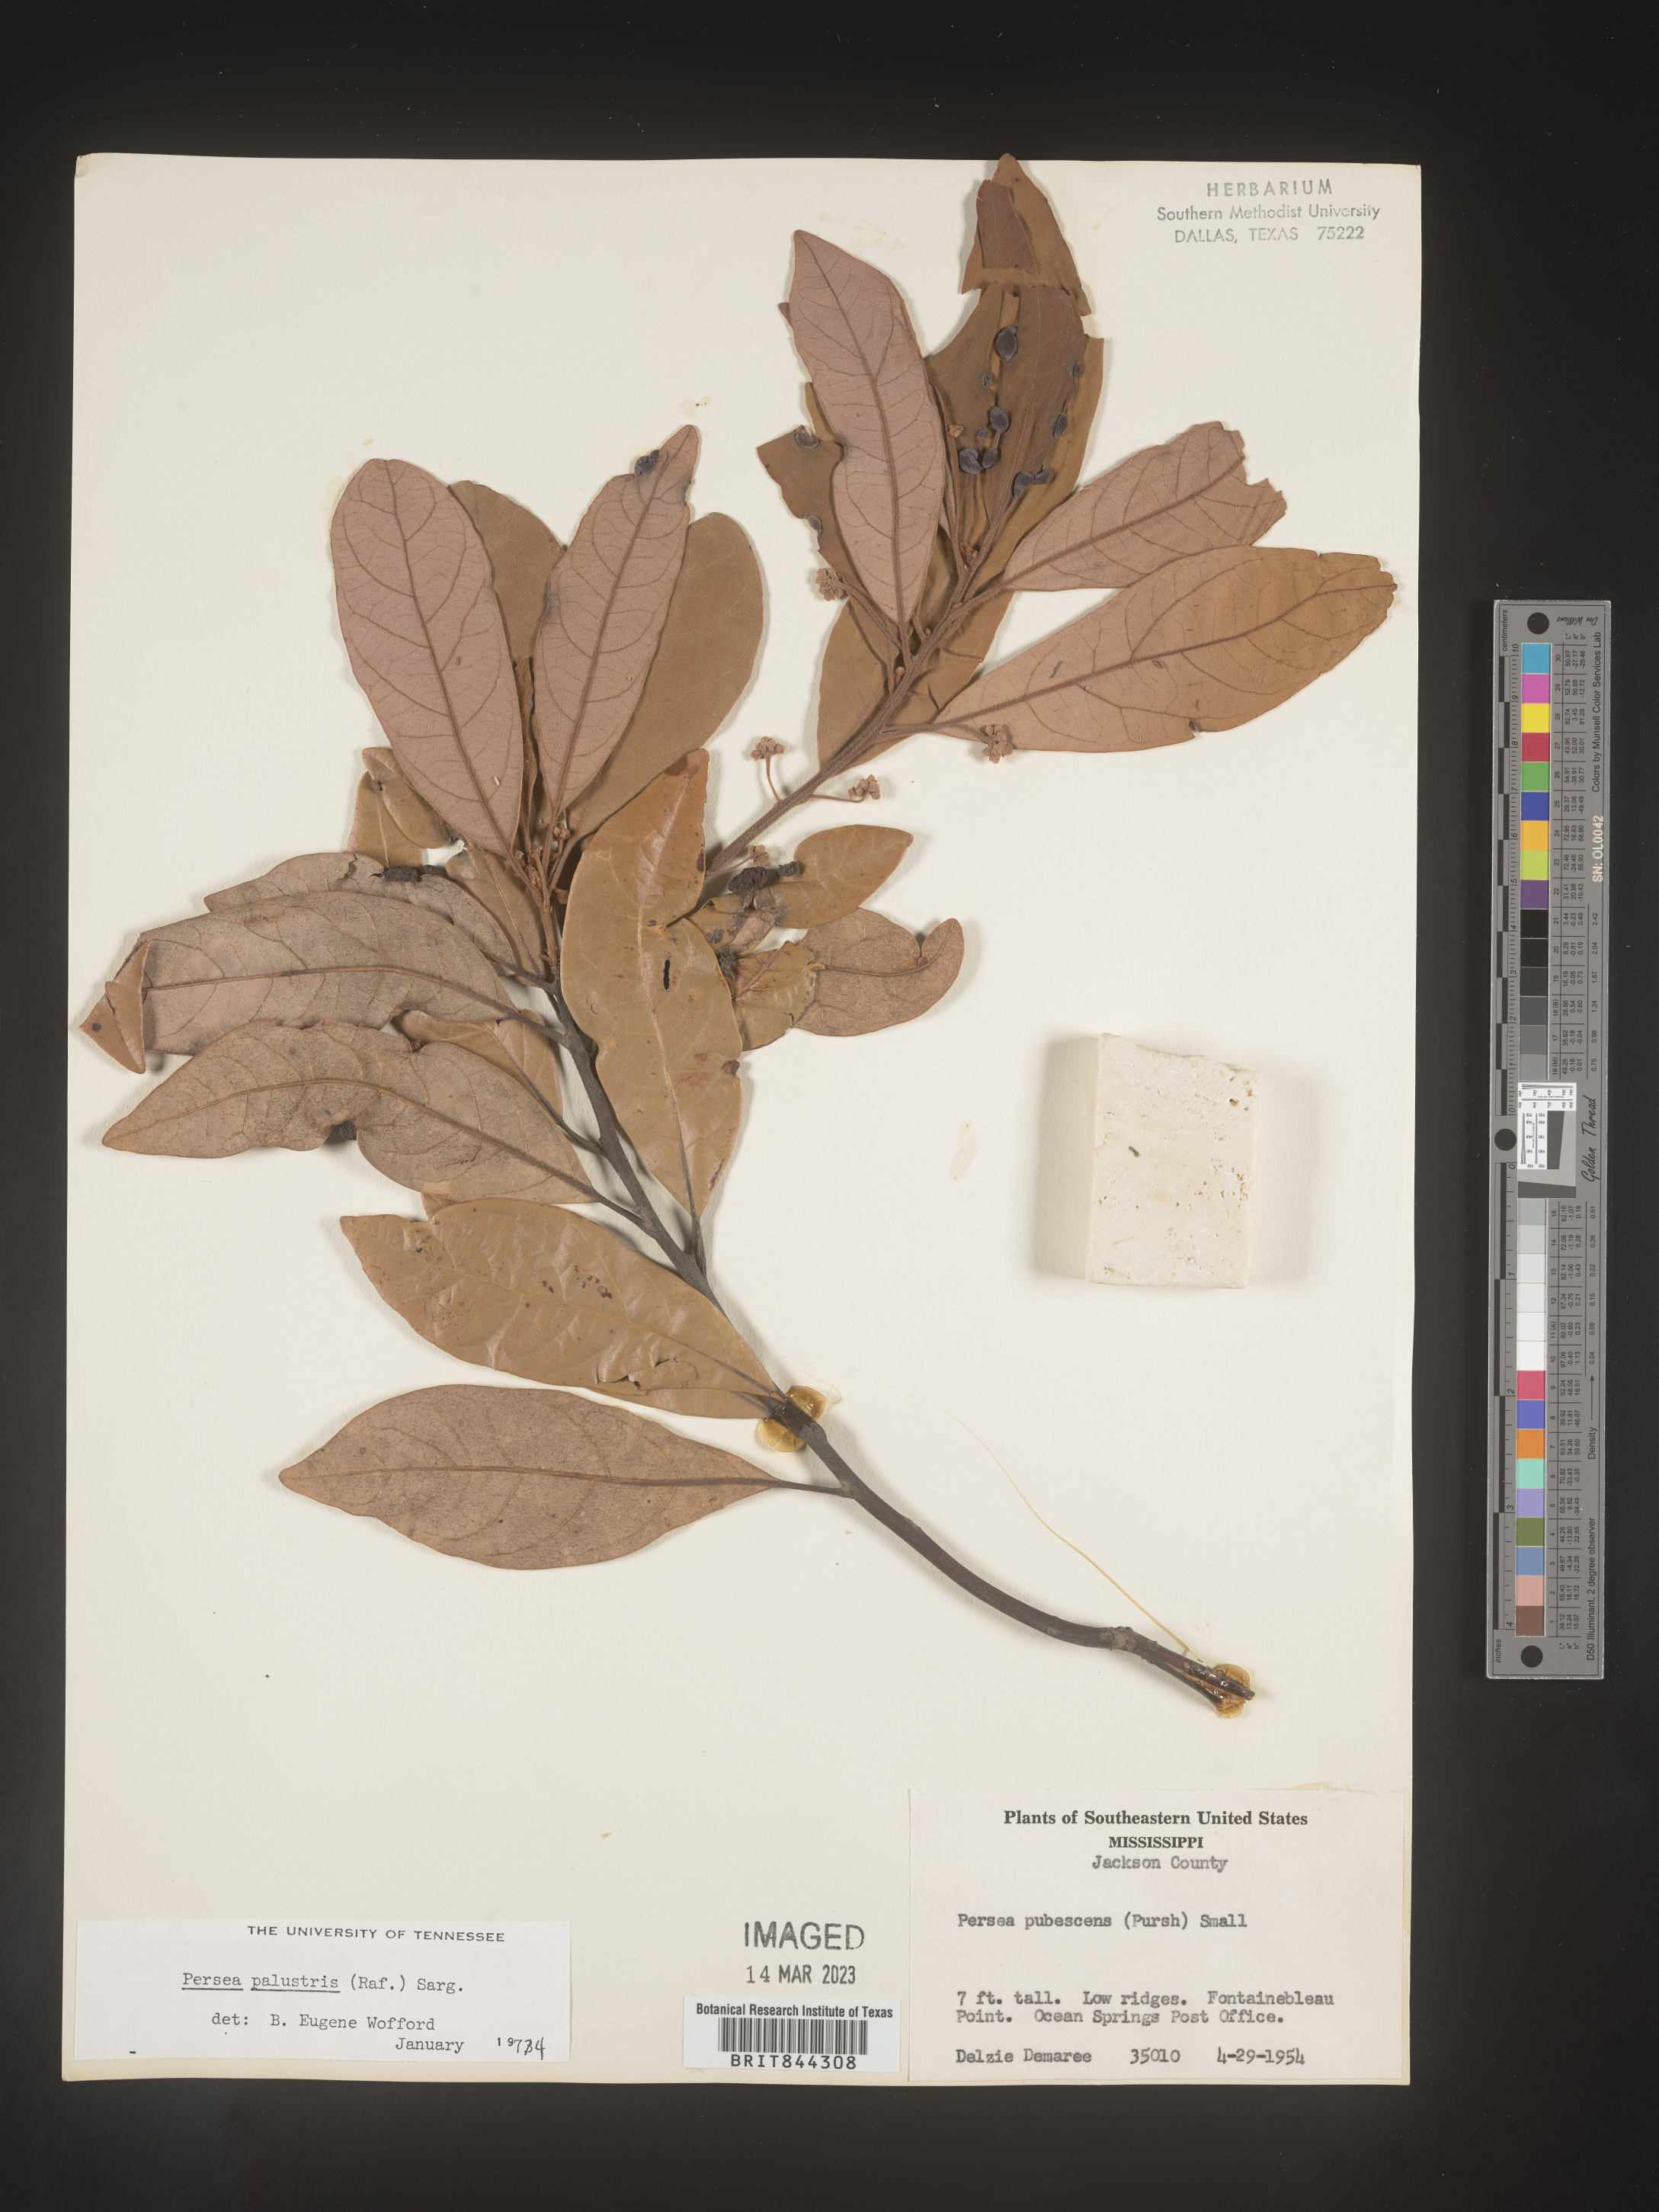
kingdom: Plantae
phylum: Tracheophyta
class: Magnoliopsida
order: Laurales
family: Lauraceae
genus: Persea
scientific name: Persea palustris
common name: Swampbay
